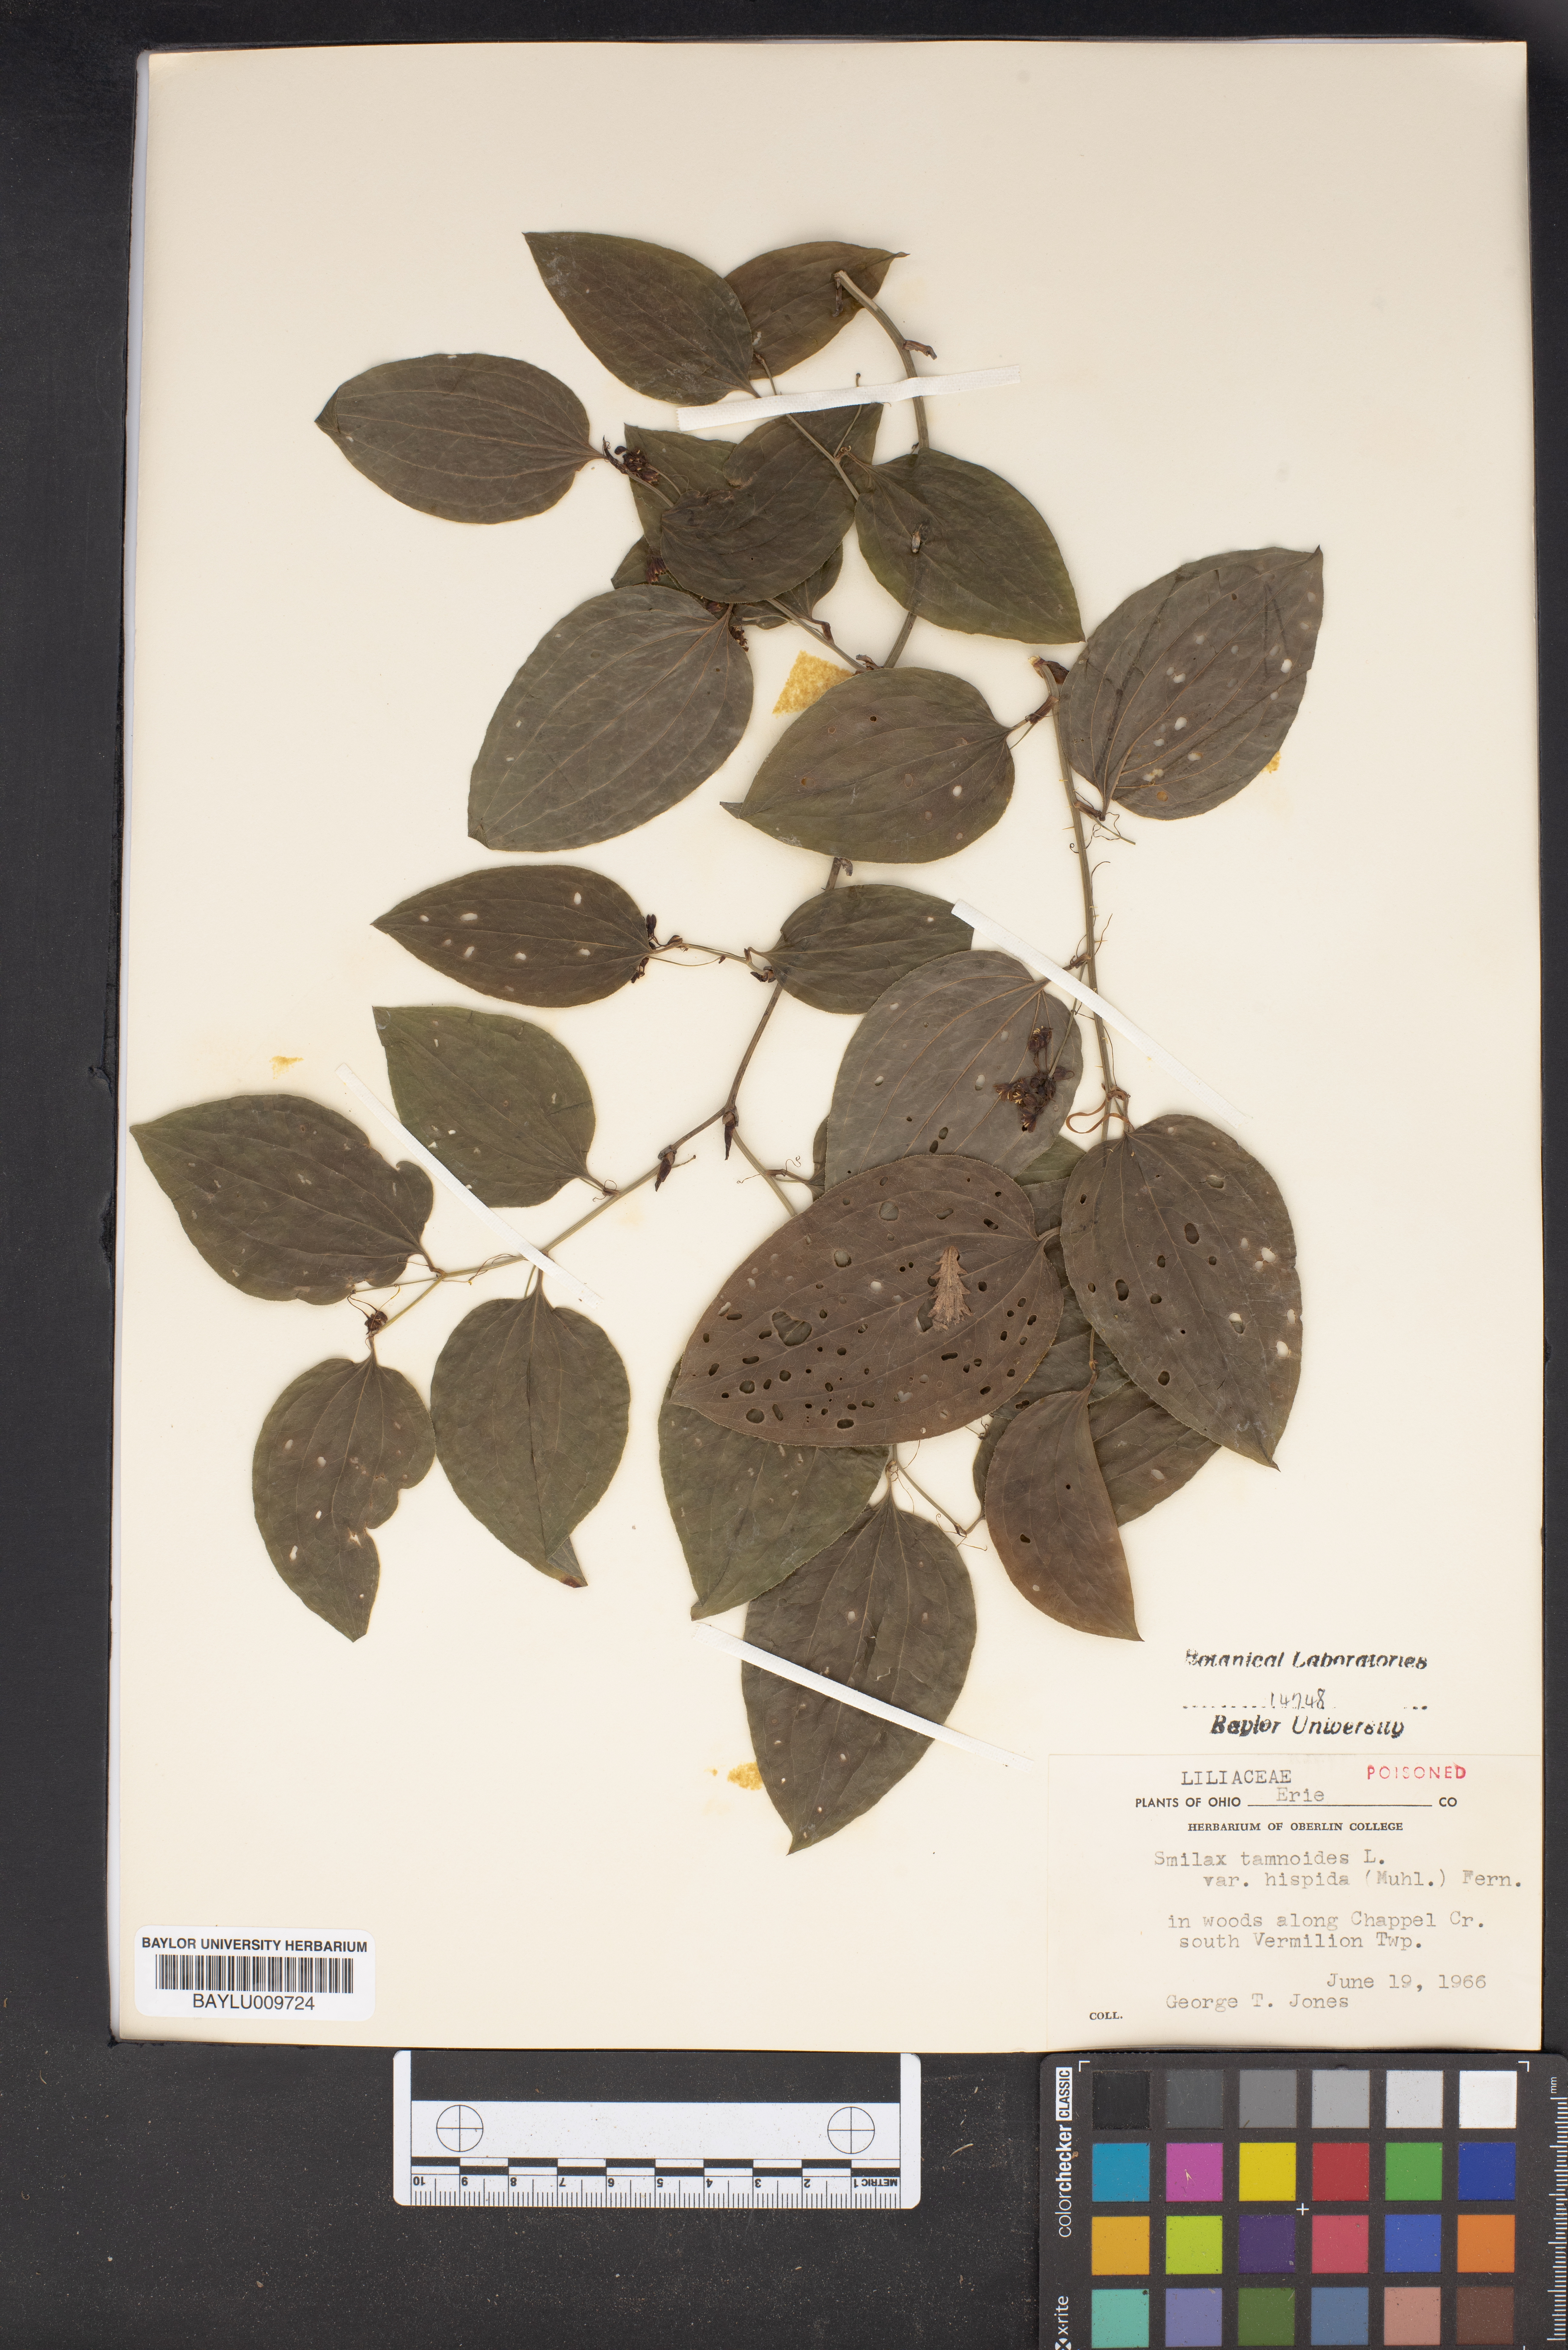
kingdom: Plantae
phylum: Tracheophyta
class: Liliopsida
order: Liliales
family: Smilacaceae
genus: Smilax
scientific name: Smilax tamnoides
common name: Hellfetter
